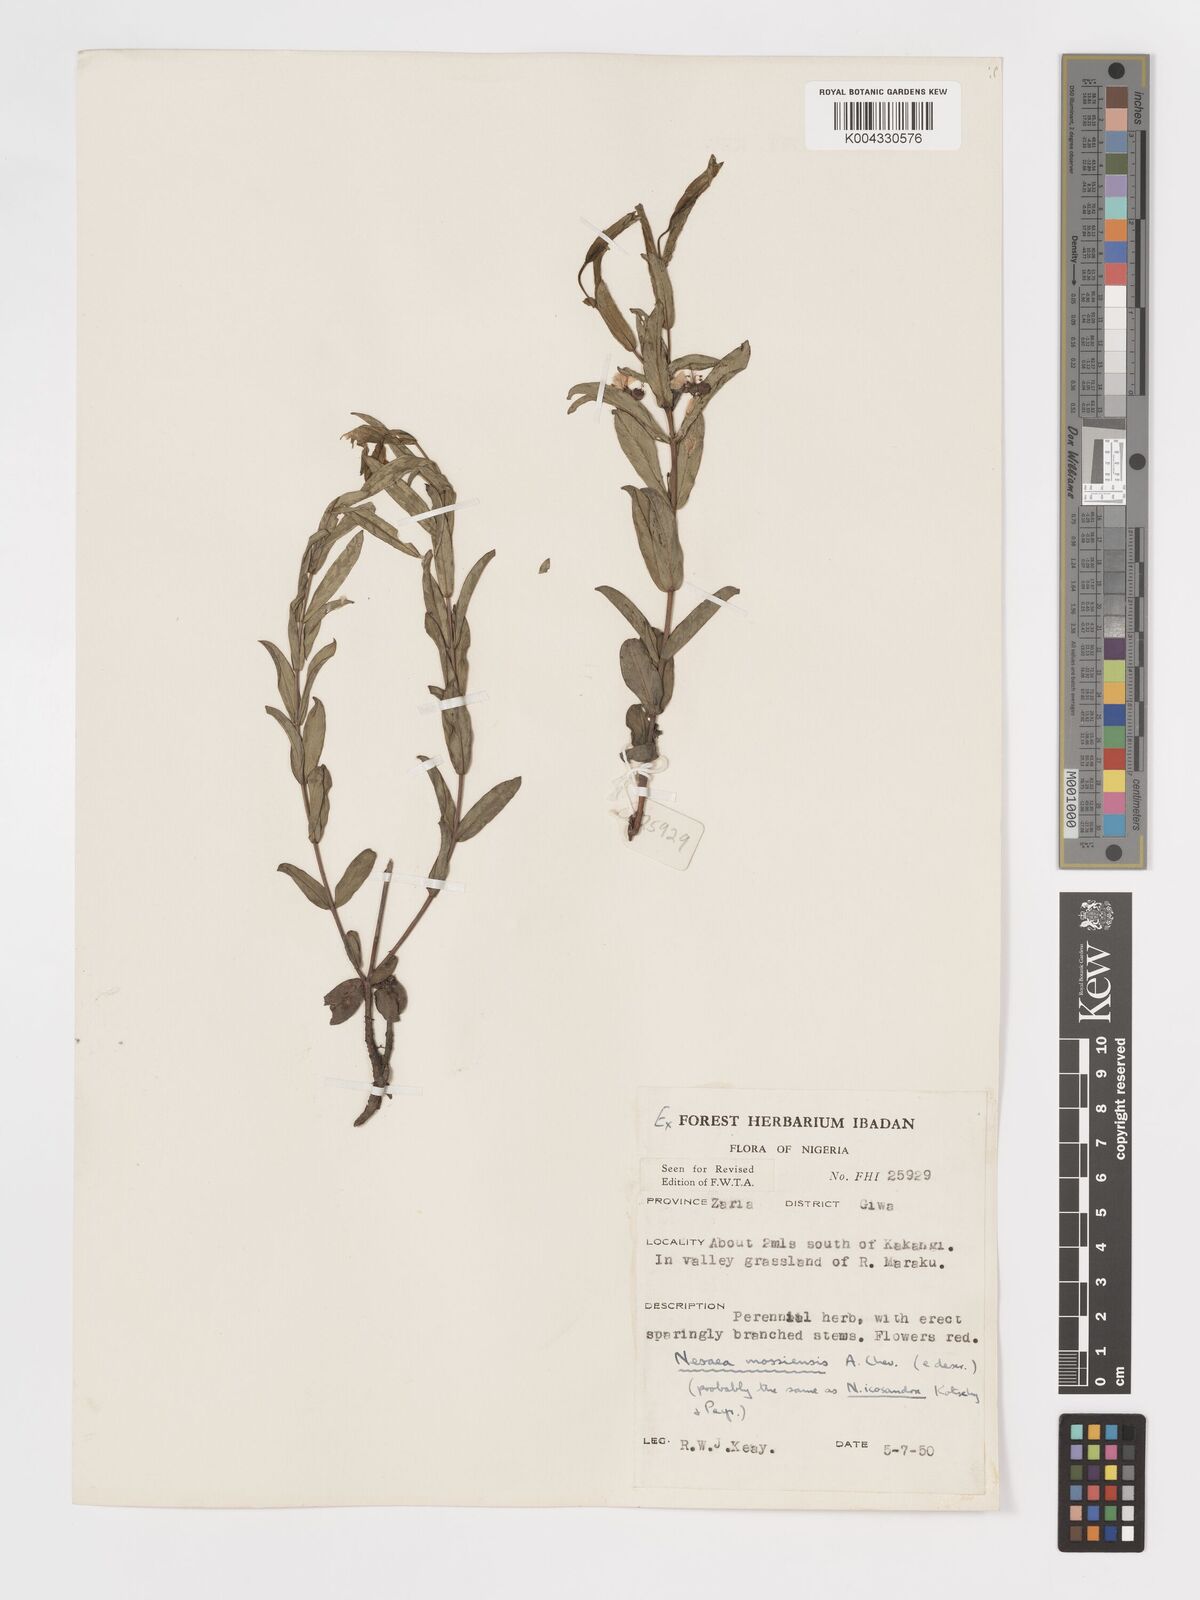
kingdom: Plantae
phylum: Tracheophyta
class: Magnoliopsida
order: Myrtales
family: Lythraceae
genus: Ammannia
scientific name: Ammannia angustifolia
